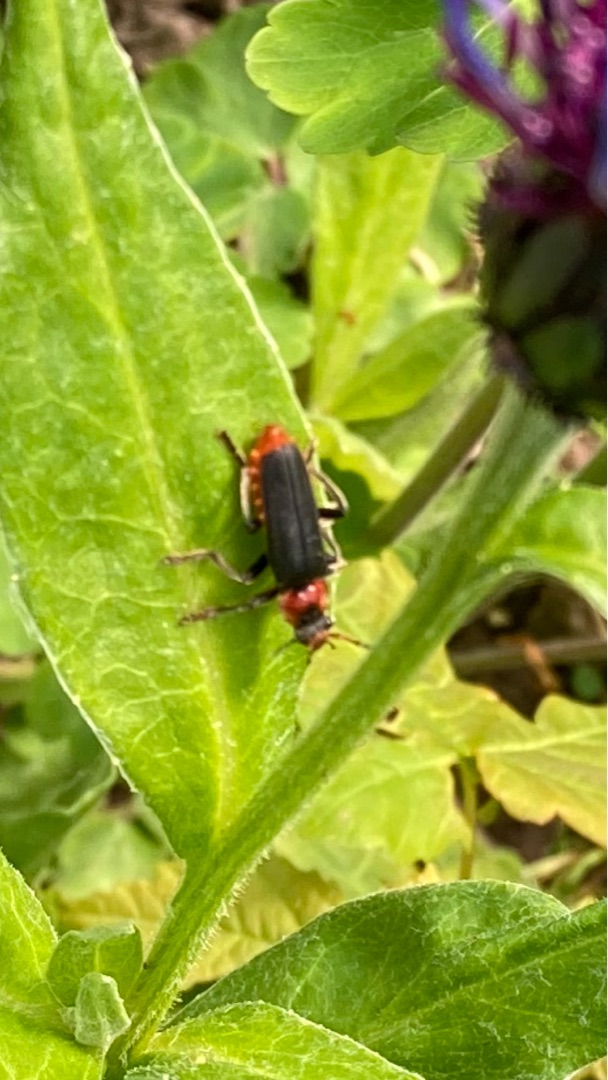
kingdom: Animalia
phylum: Arthropoda
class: Insecta
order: Coleoptera
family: Cantharidae
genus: Cantharis
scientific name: Cantharis fusca
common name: Stor blødvinge
